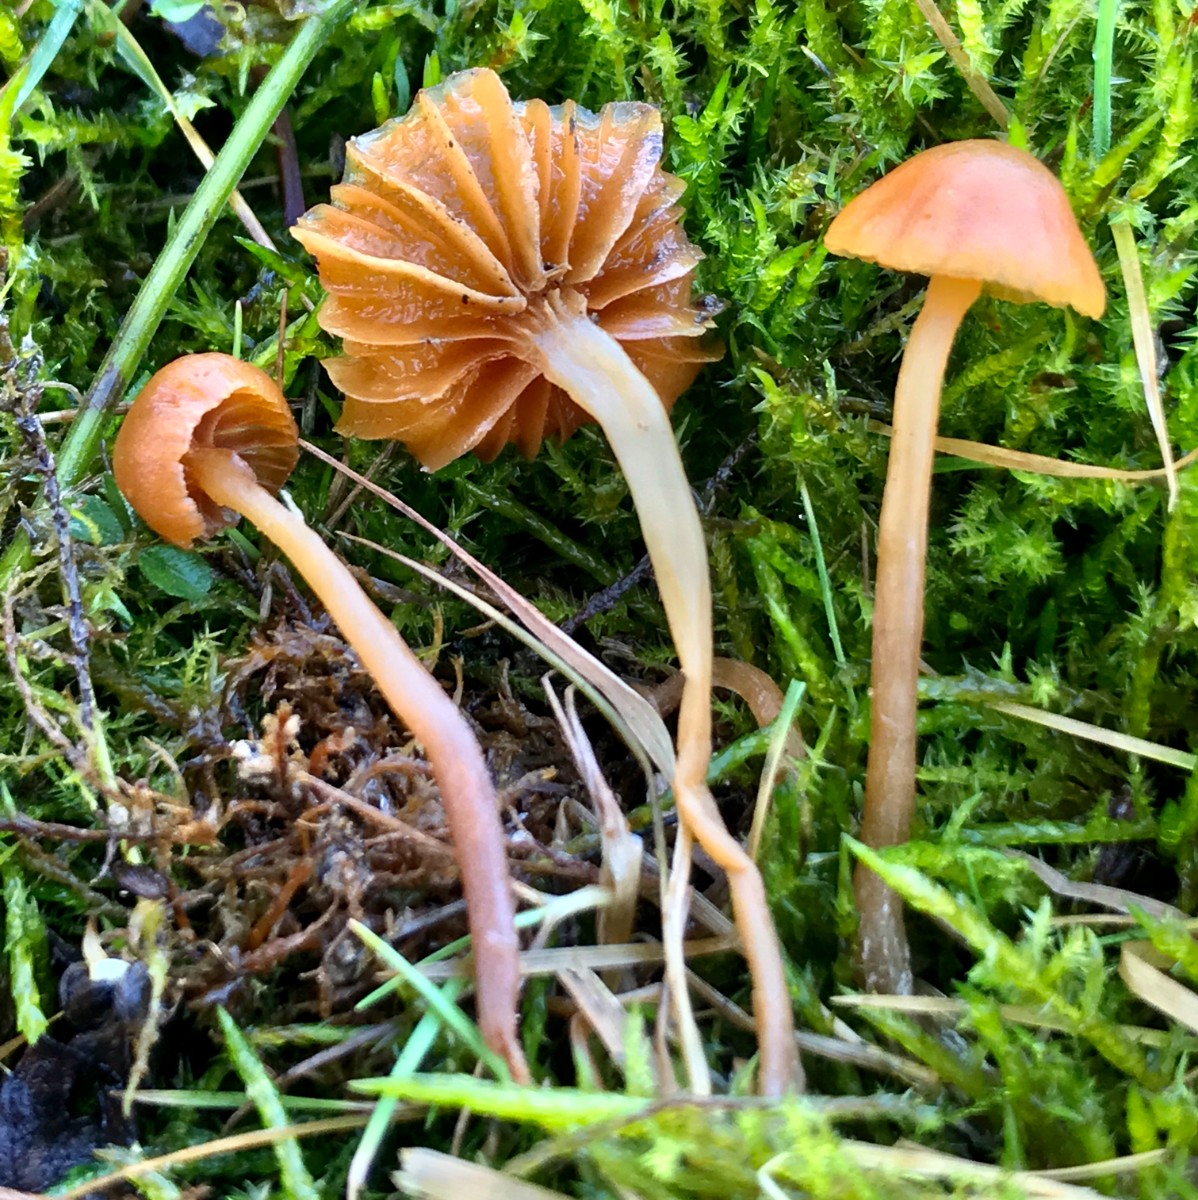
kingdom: Fungi
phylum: Basidiomycota
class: Agaricomycetes
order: Agaricales
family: Hymenogastraceae
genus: Galerina
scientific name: Galerina
